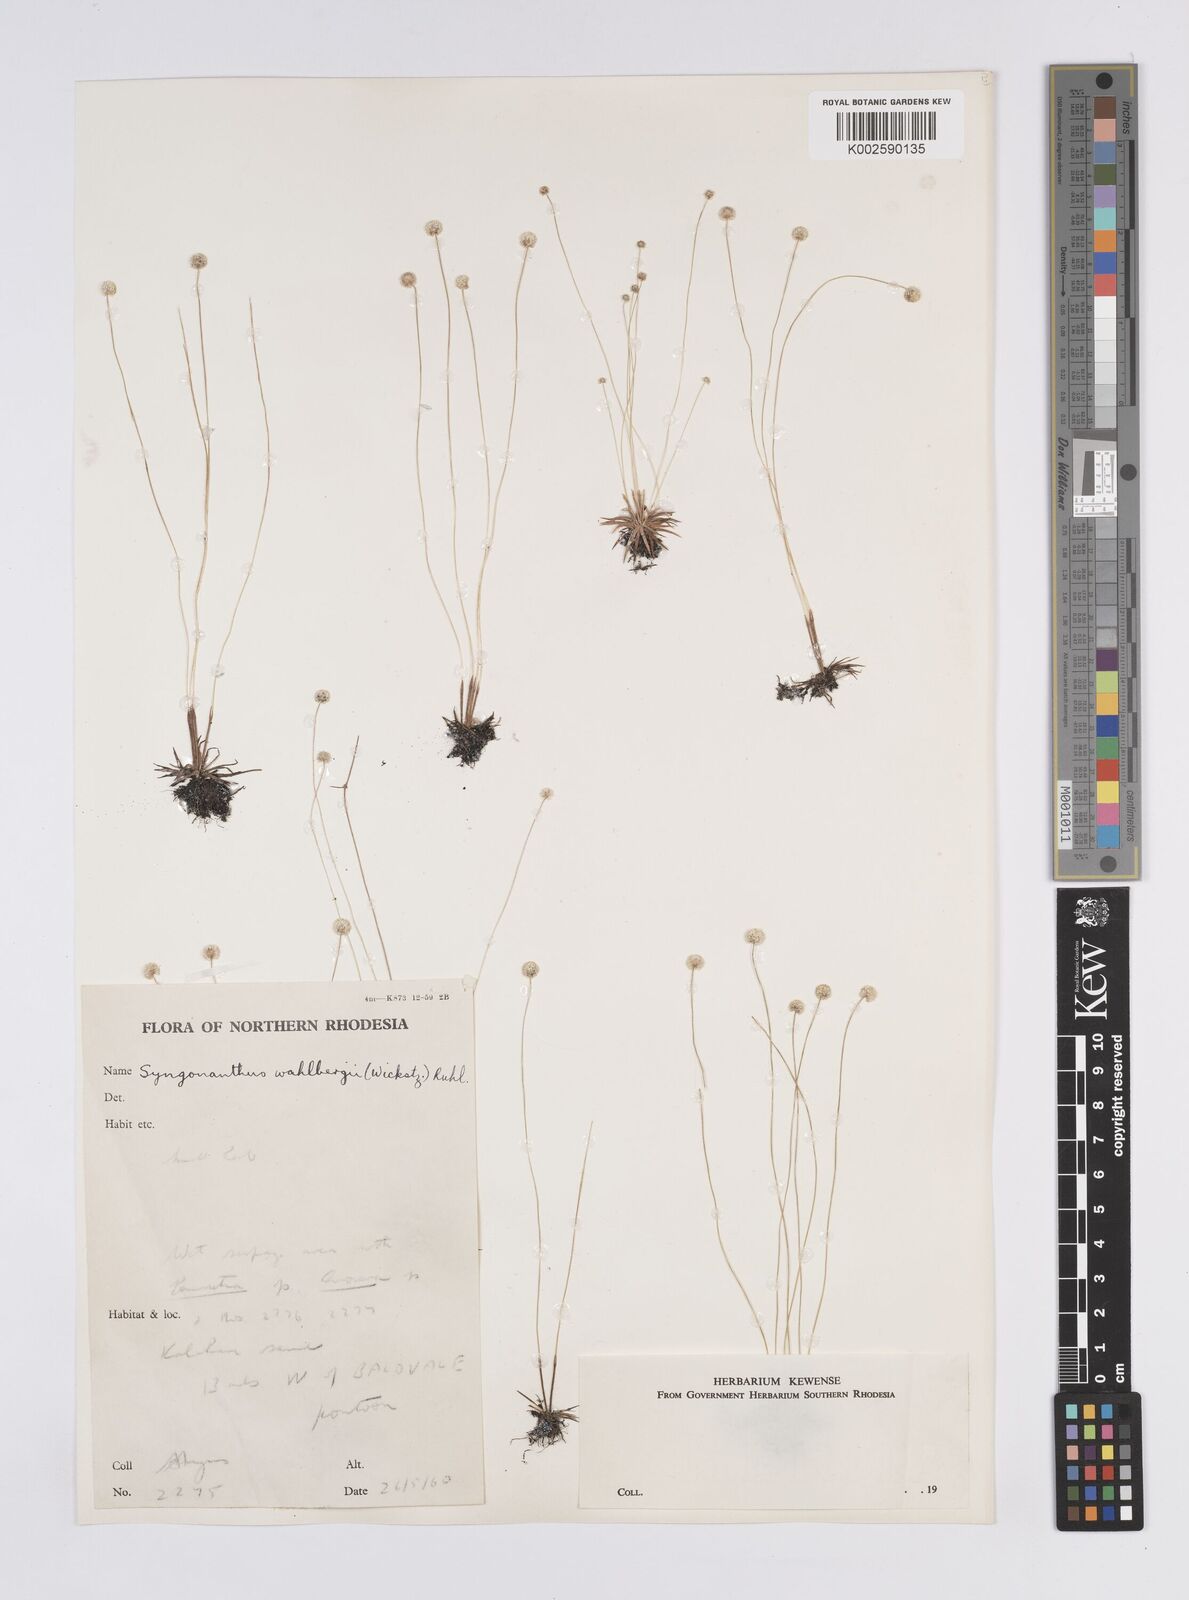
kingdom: Plantae
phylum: Tracheophyta
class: Liliopsida
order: Poales
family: Eriocaulaceae
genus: Syngonanthus
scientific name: Syngonanthus wahlbergii
